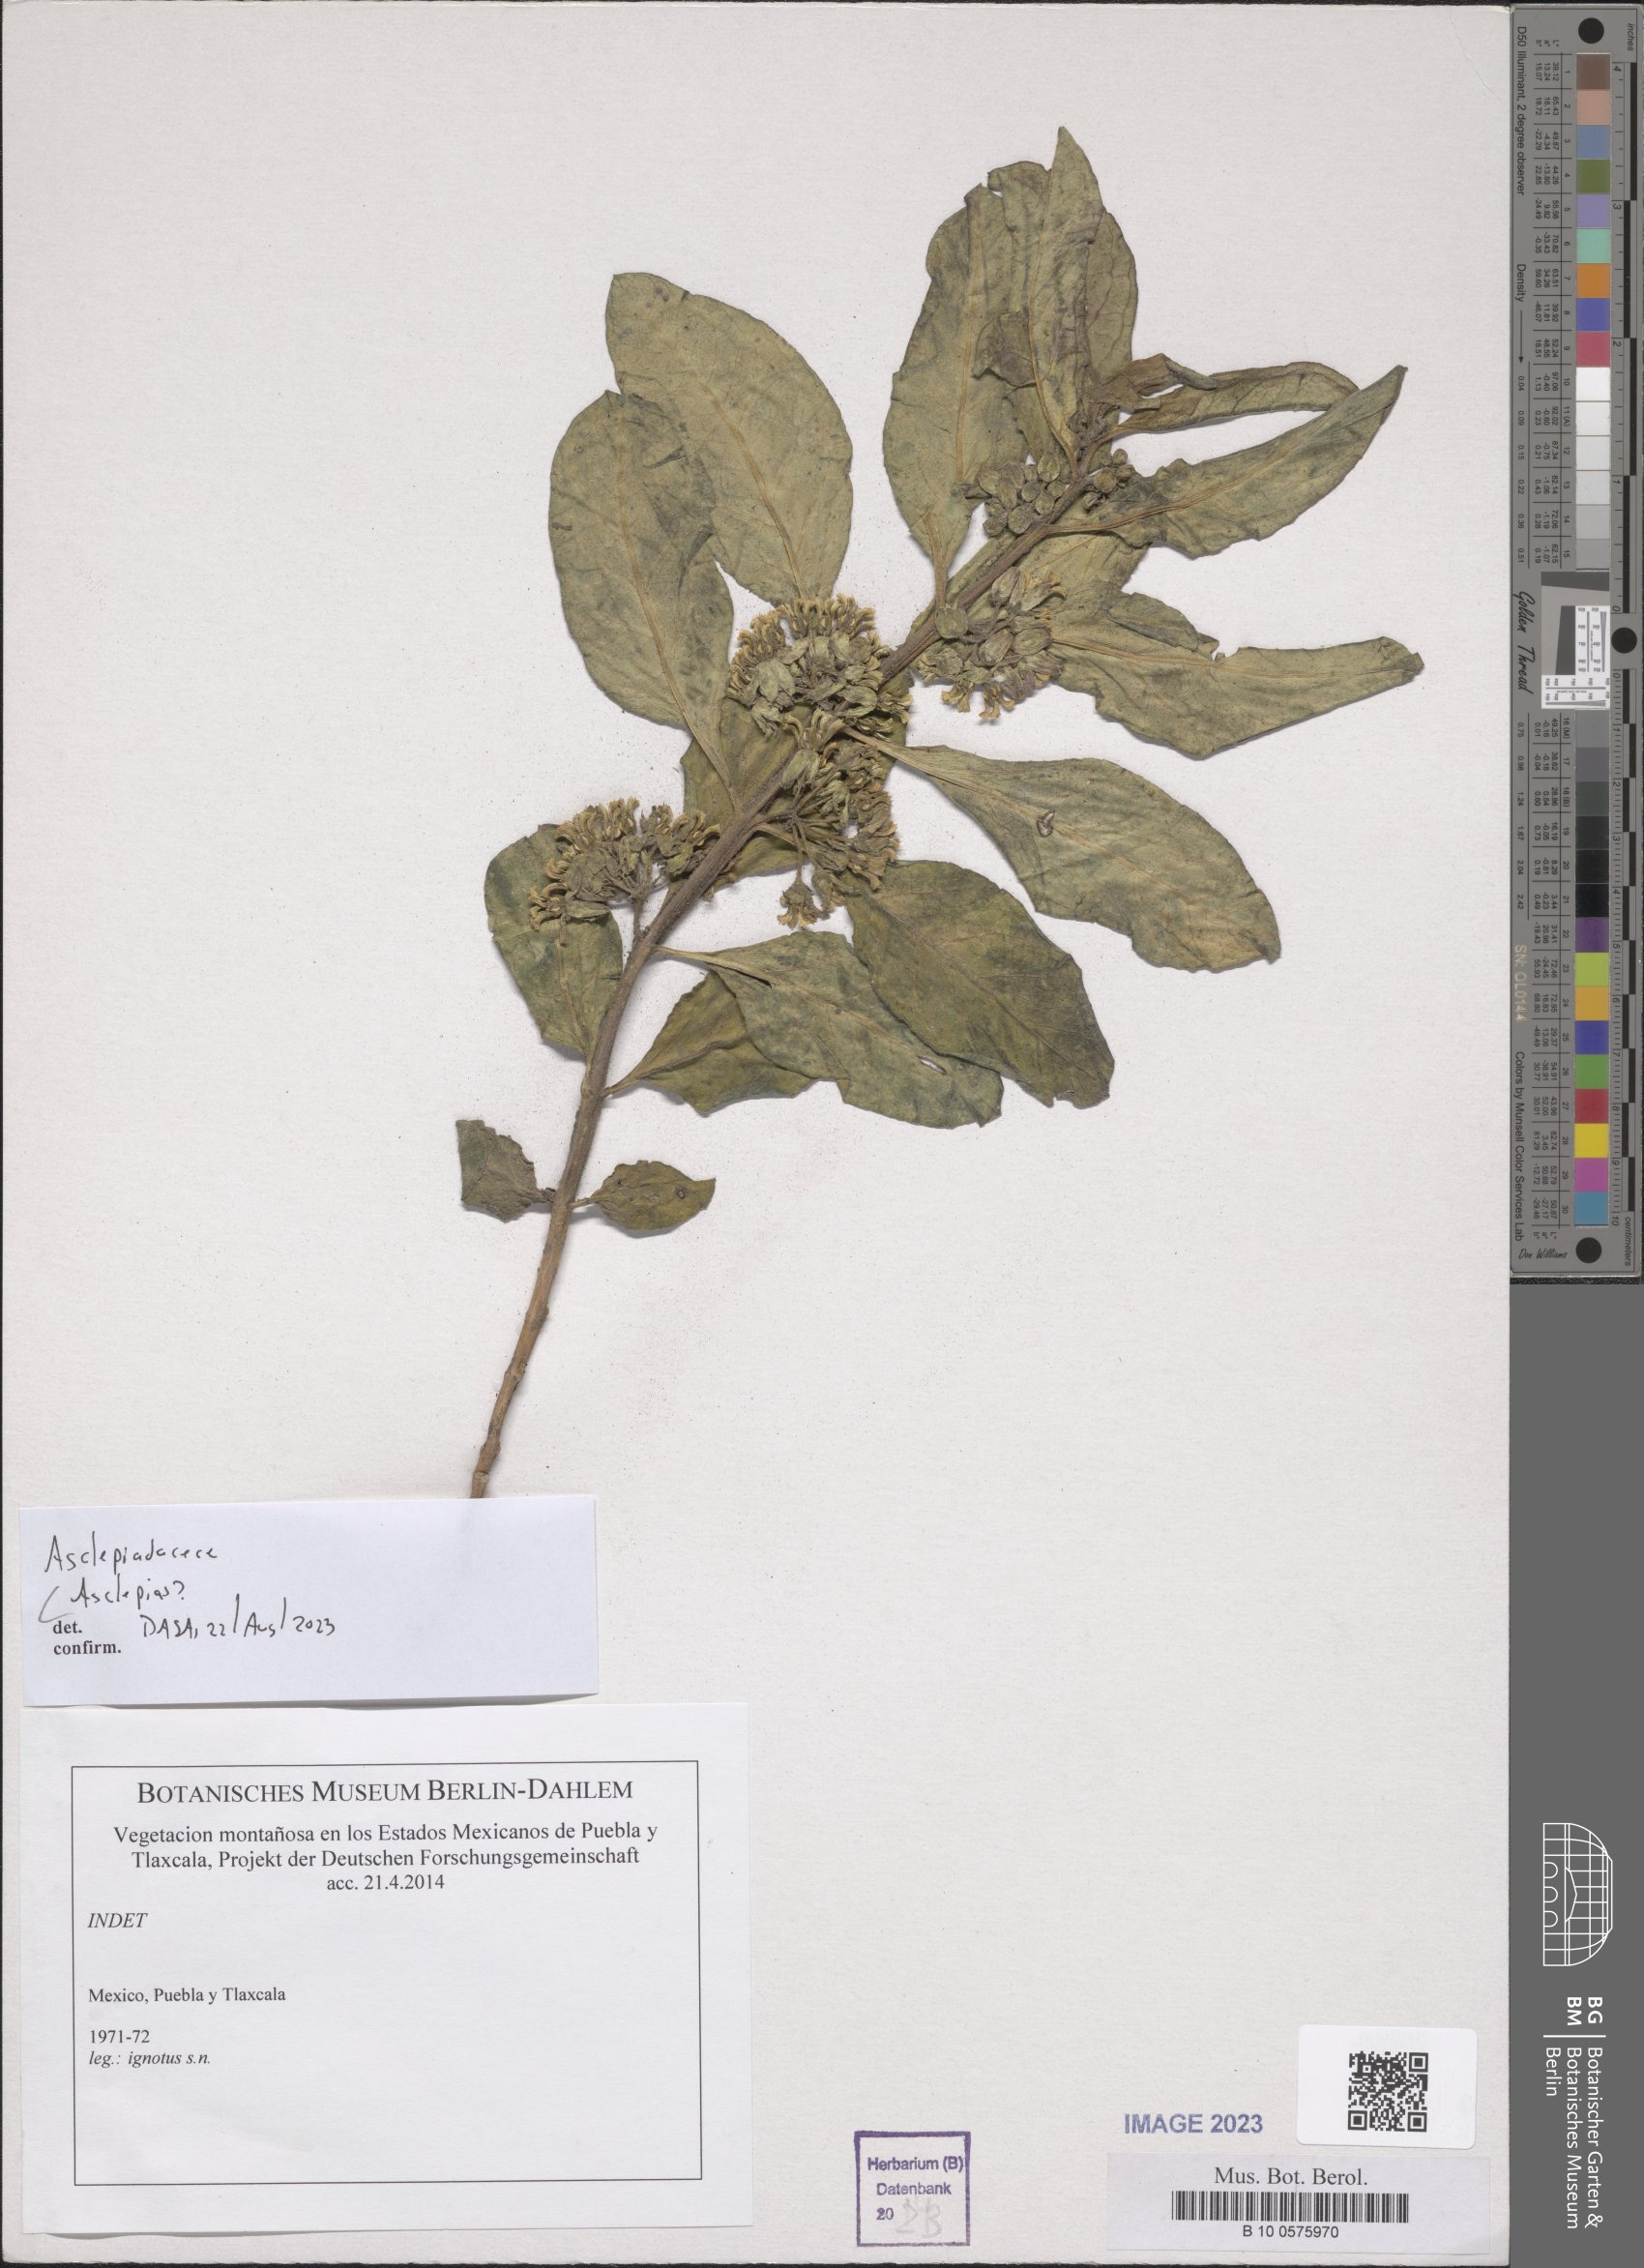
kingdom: Plantae
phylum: Tracheophyta
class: Magnoliopsida
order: Gentianales
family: Apocynaceae
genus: Asclepias
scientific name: Asclepias
